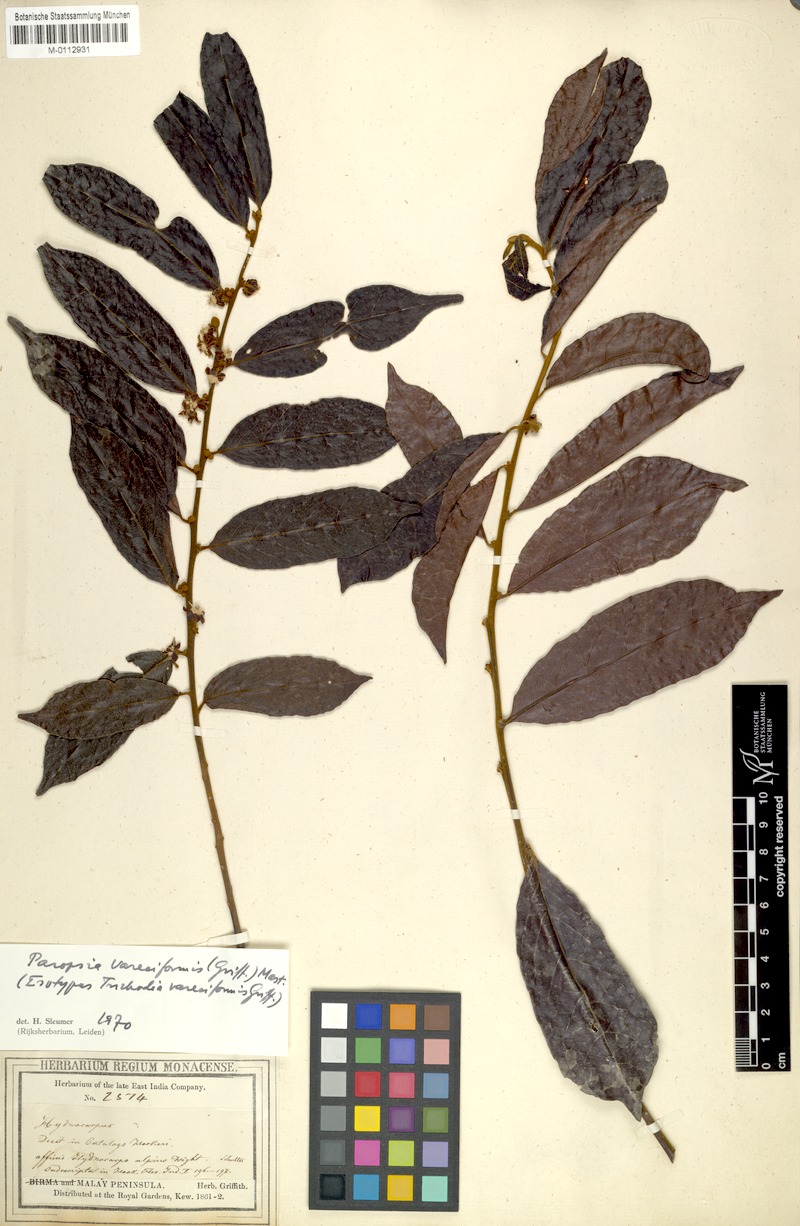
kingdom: Plantae
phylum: Tracheophyta
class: Magnoliopsida
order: Malpighiales
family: Passifloraceae
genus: Paropsia
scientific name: Paropsia varecifomis
